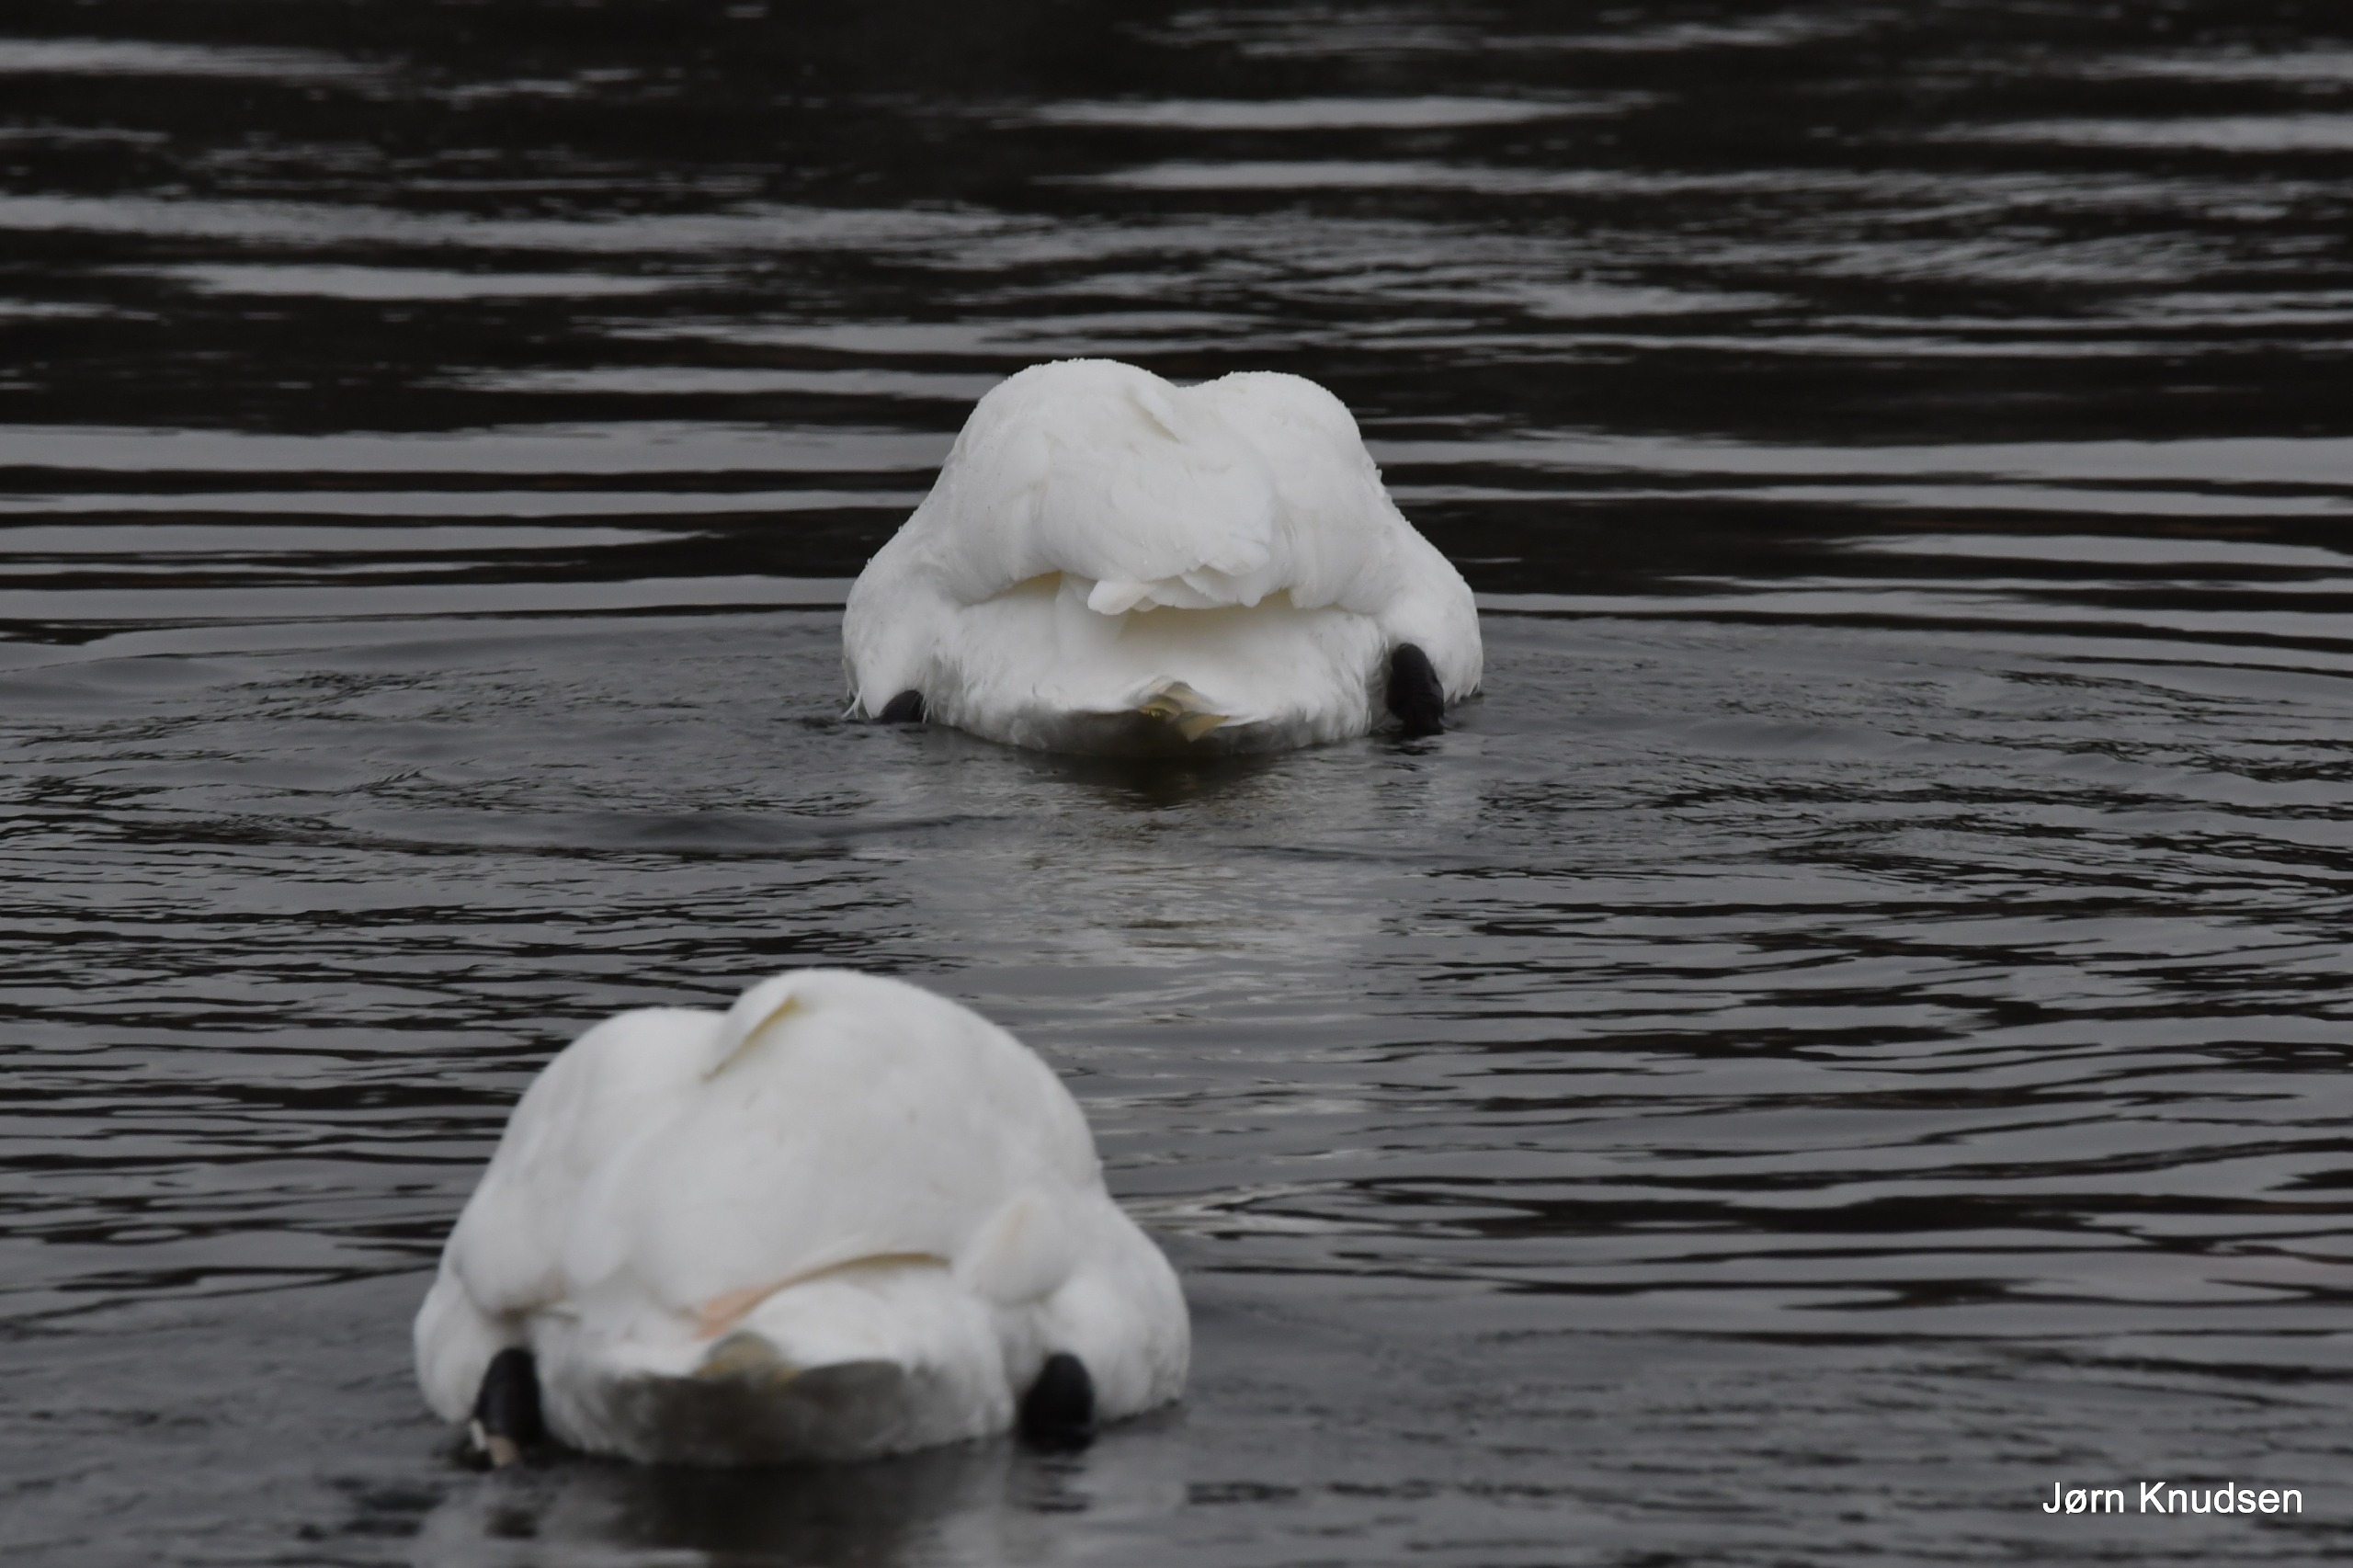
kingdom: Animalia
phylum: Chordata
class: Aves
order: Anseriformes
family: Anatidae
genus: Cygnus
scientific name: Cygnus olor
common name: Knopsvane
